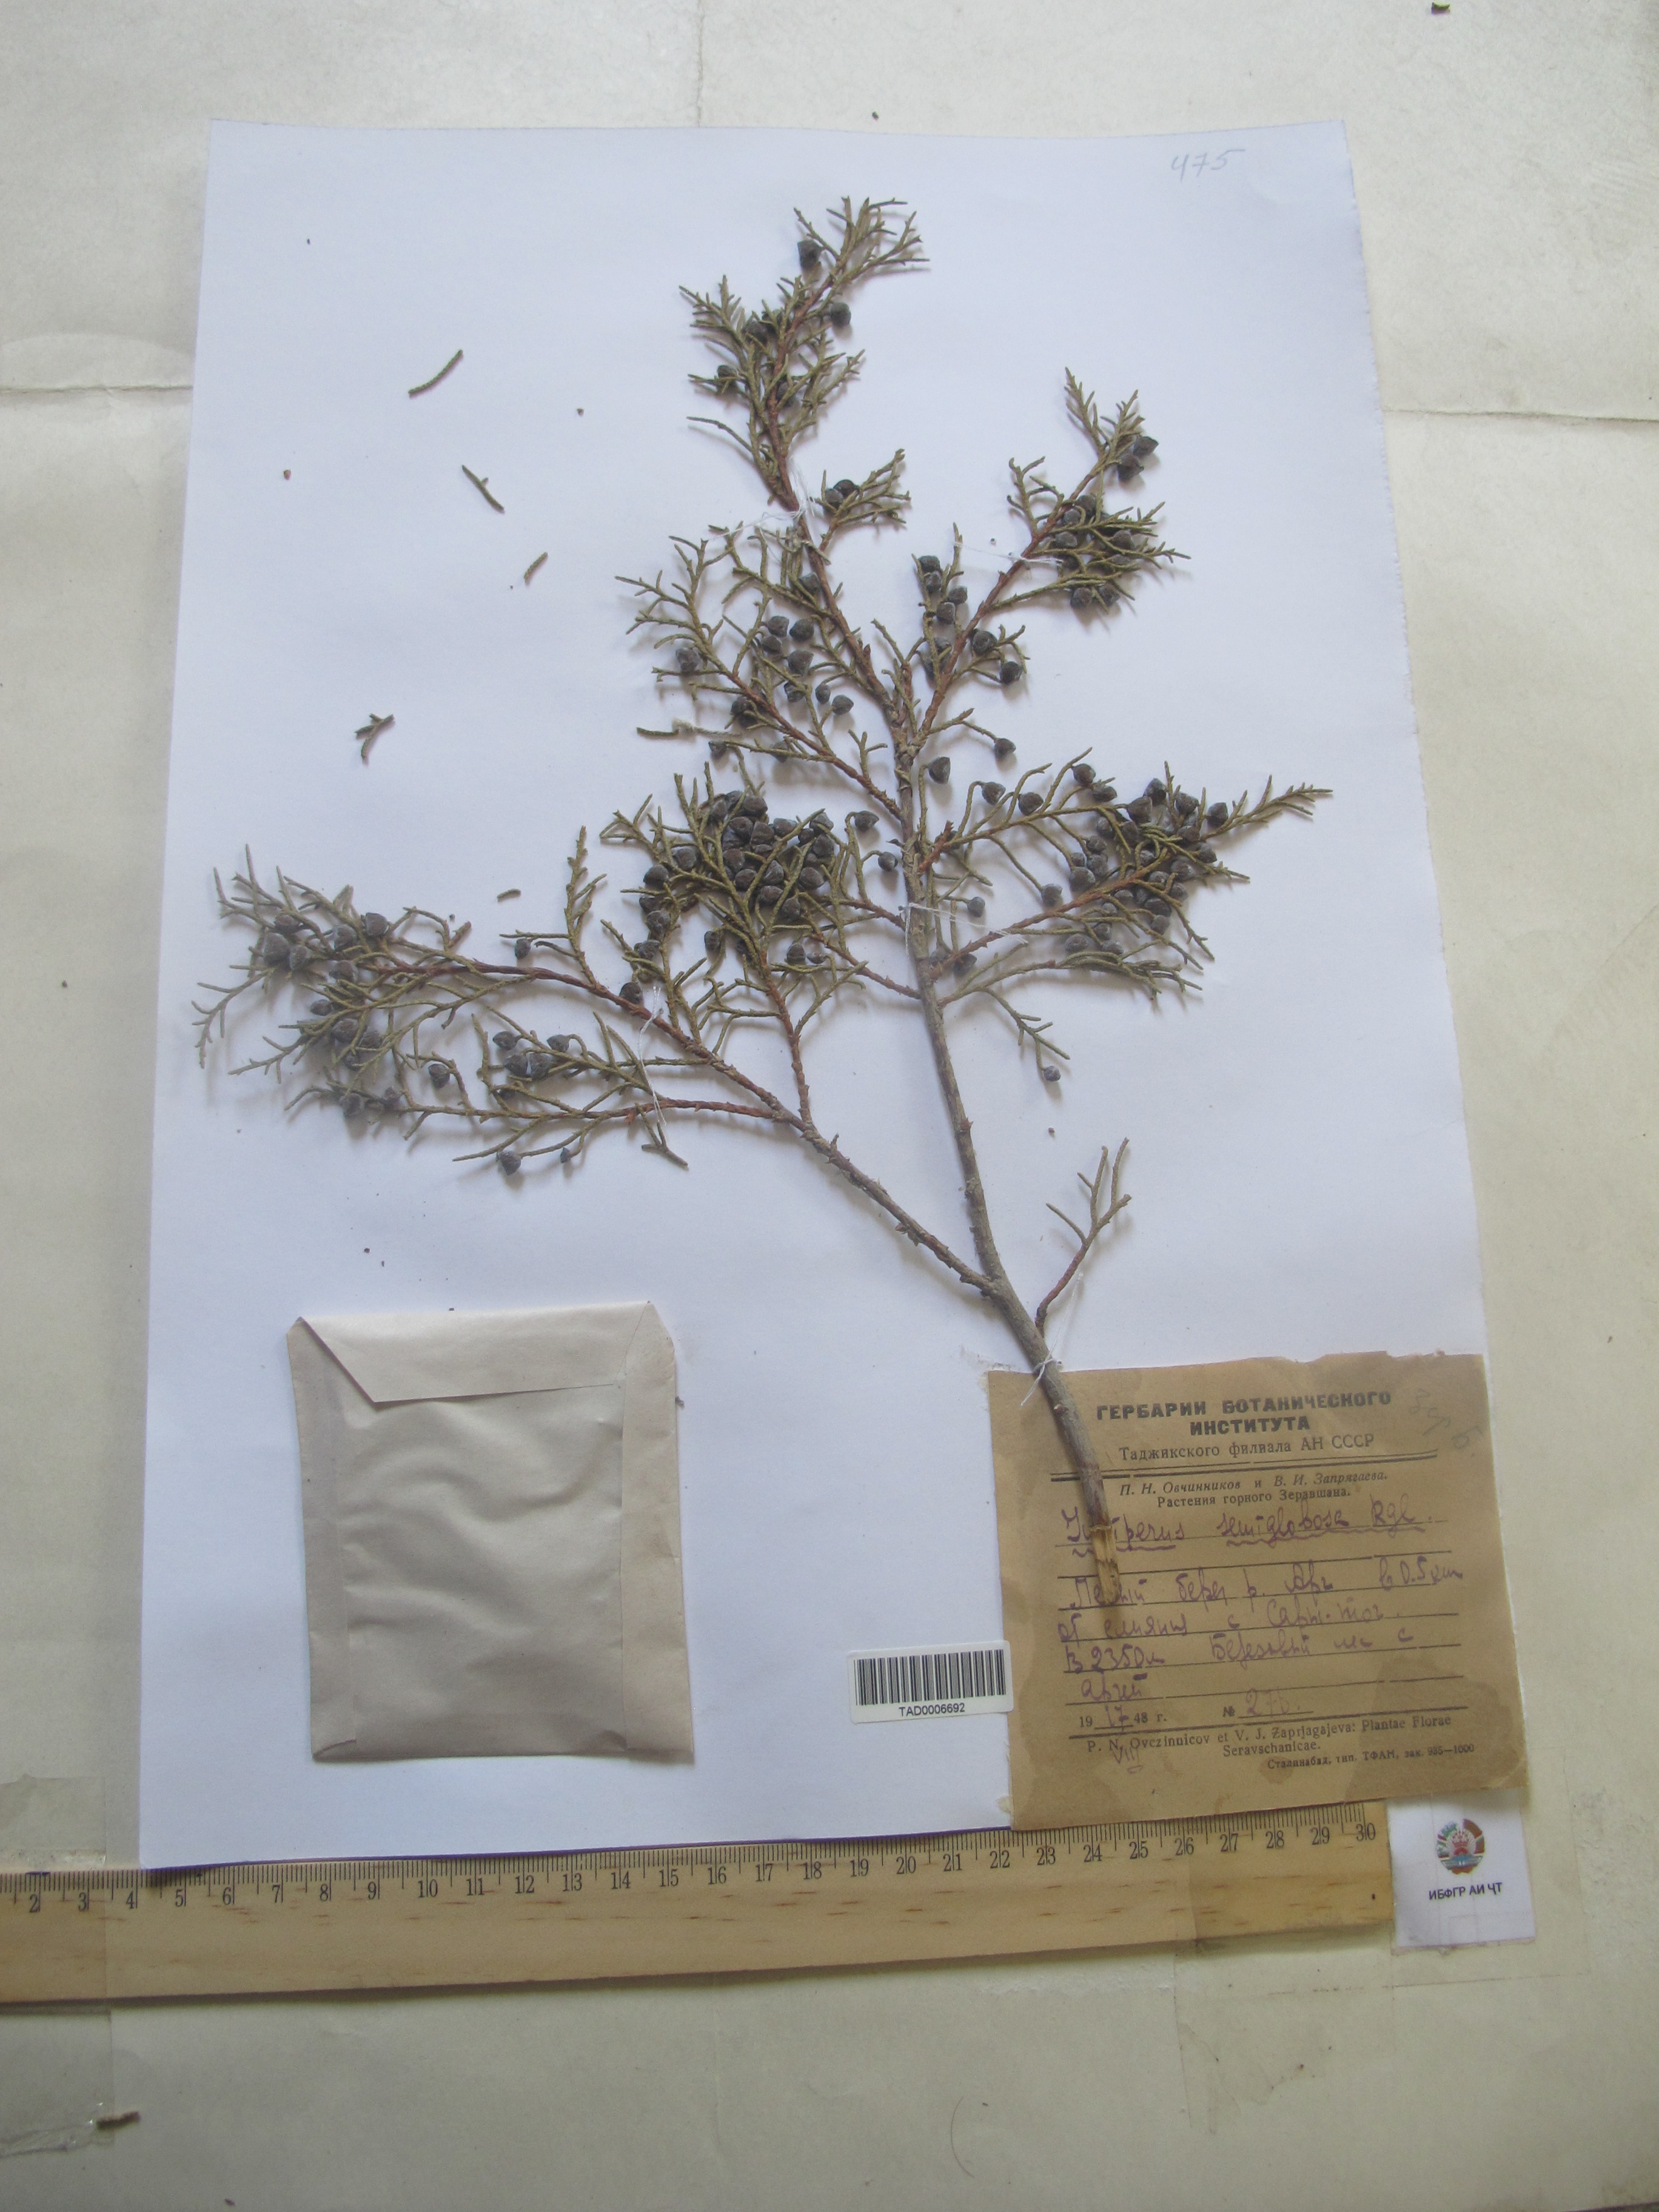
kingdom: Plantae
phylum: Tracheophyta
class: Pinopsida
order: Pinales
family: Cupressaceae
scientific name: Cupressaceae
